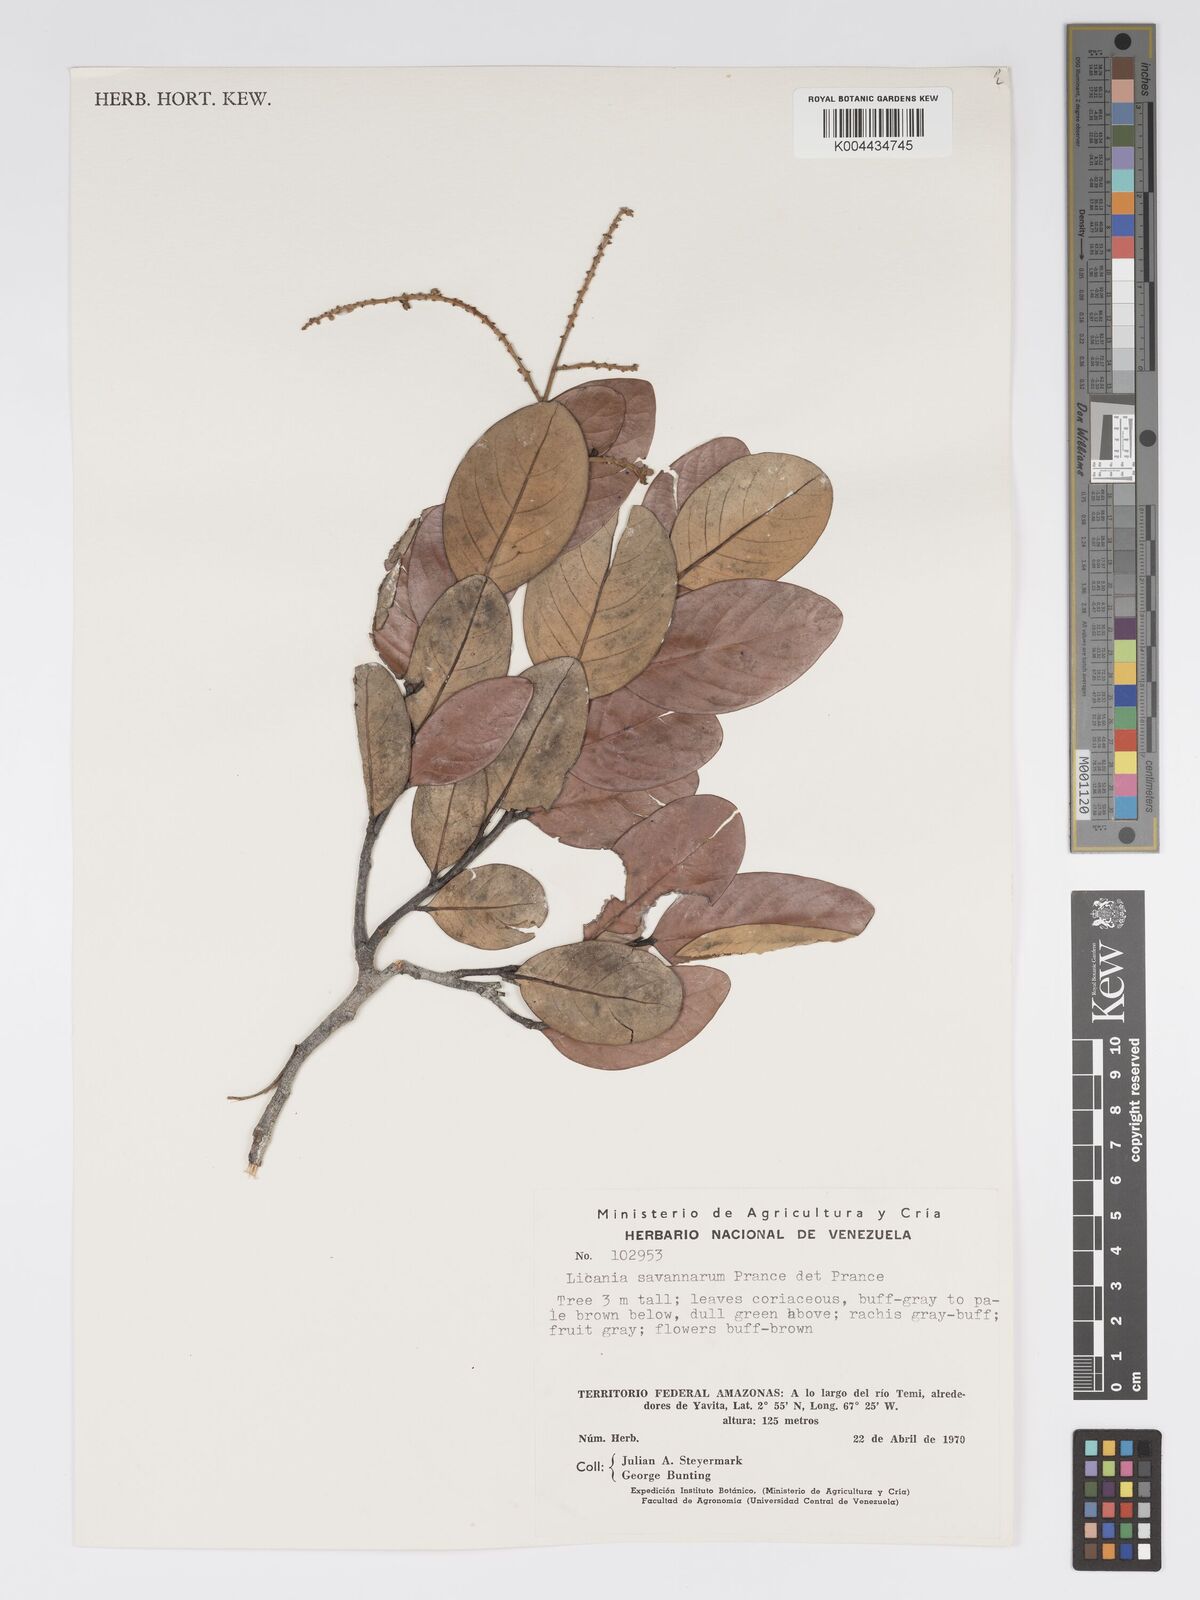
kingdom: Plantae
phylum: Tracheophyta
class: Magnoliopsida
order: Malpighiales
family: Chrysobalanaceae
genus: Licania
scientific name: Licania savannarum
